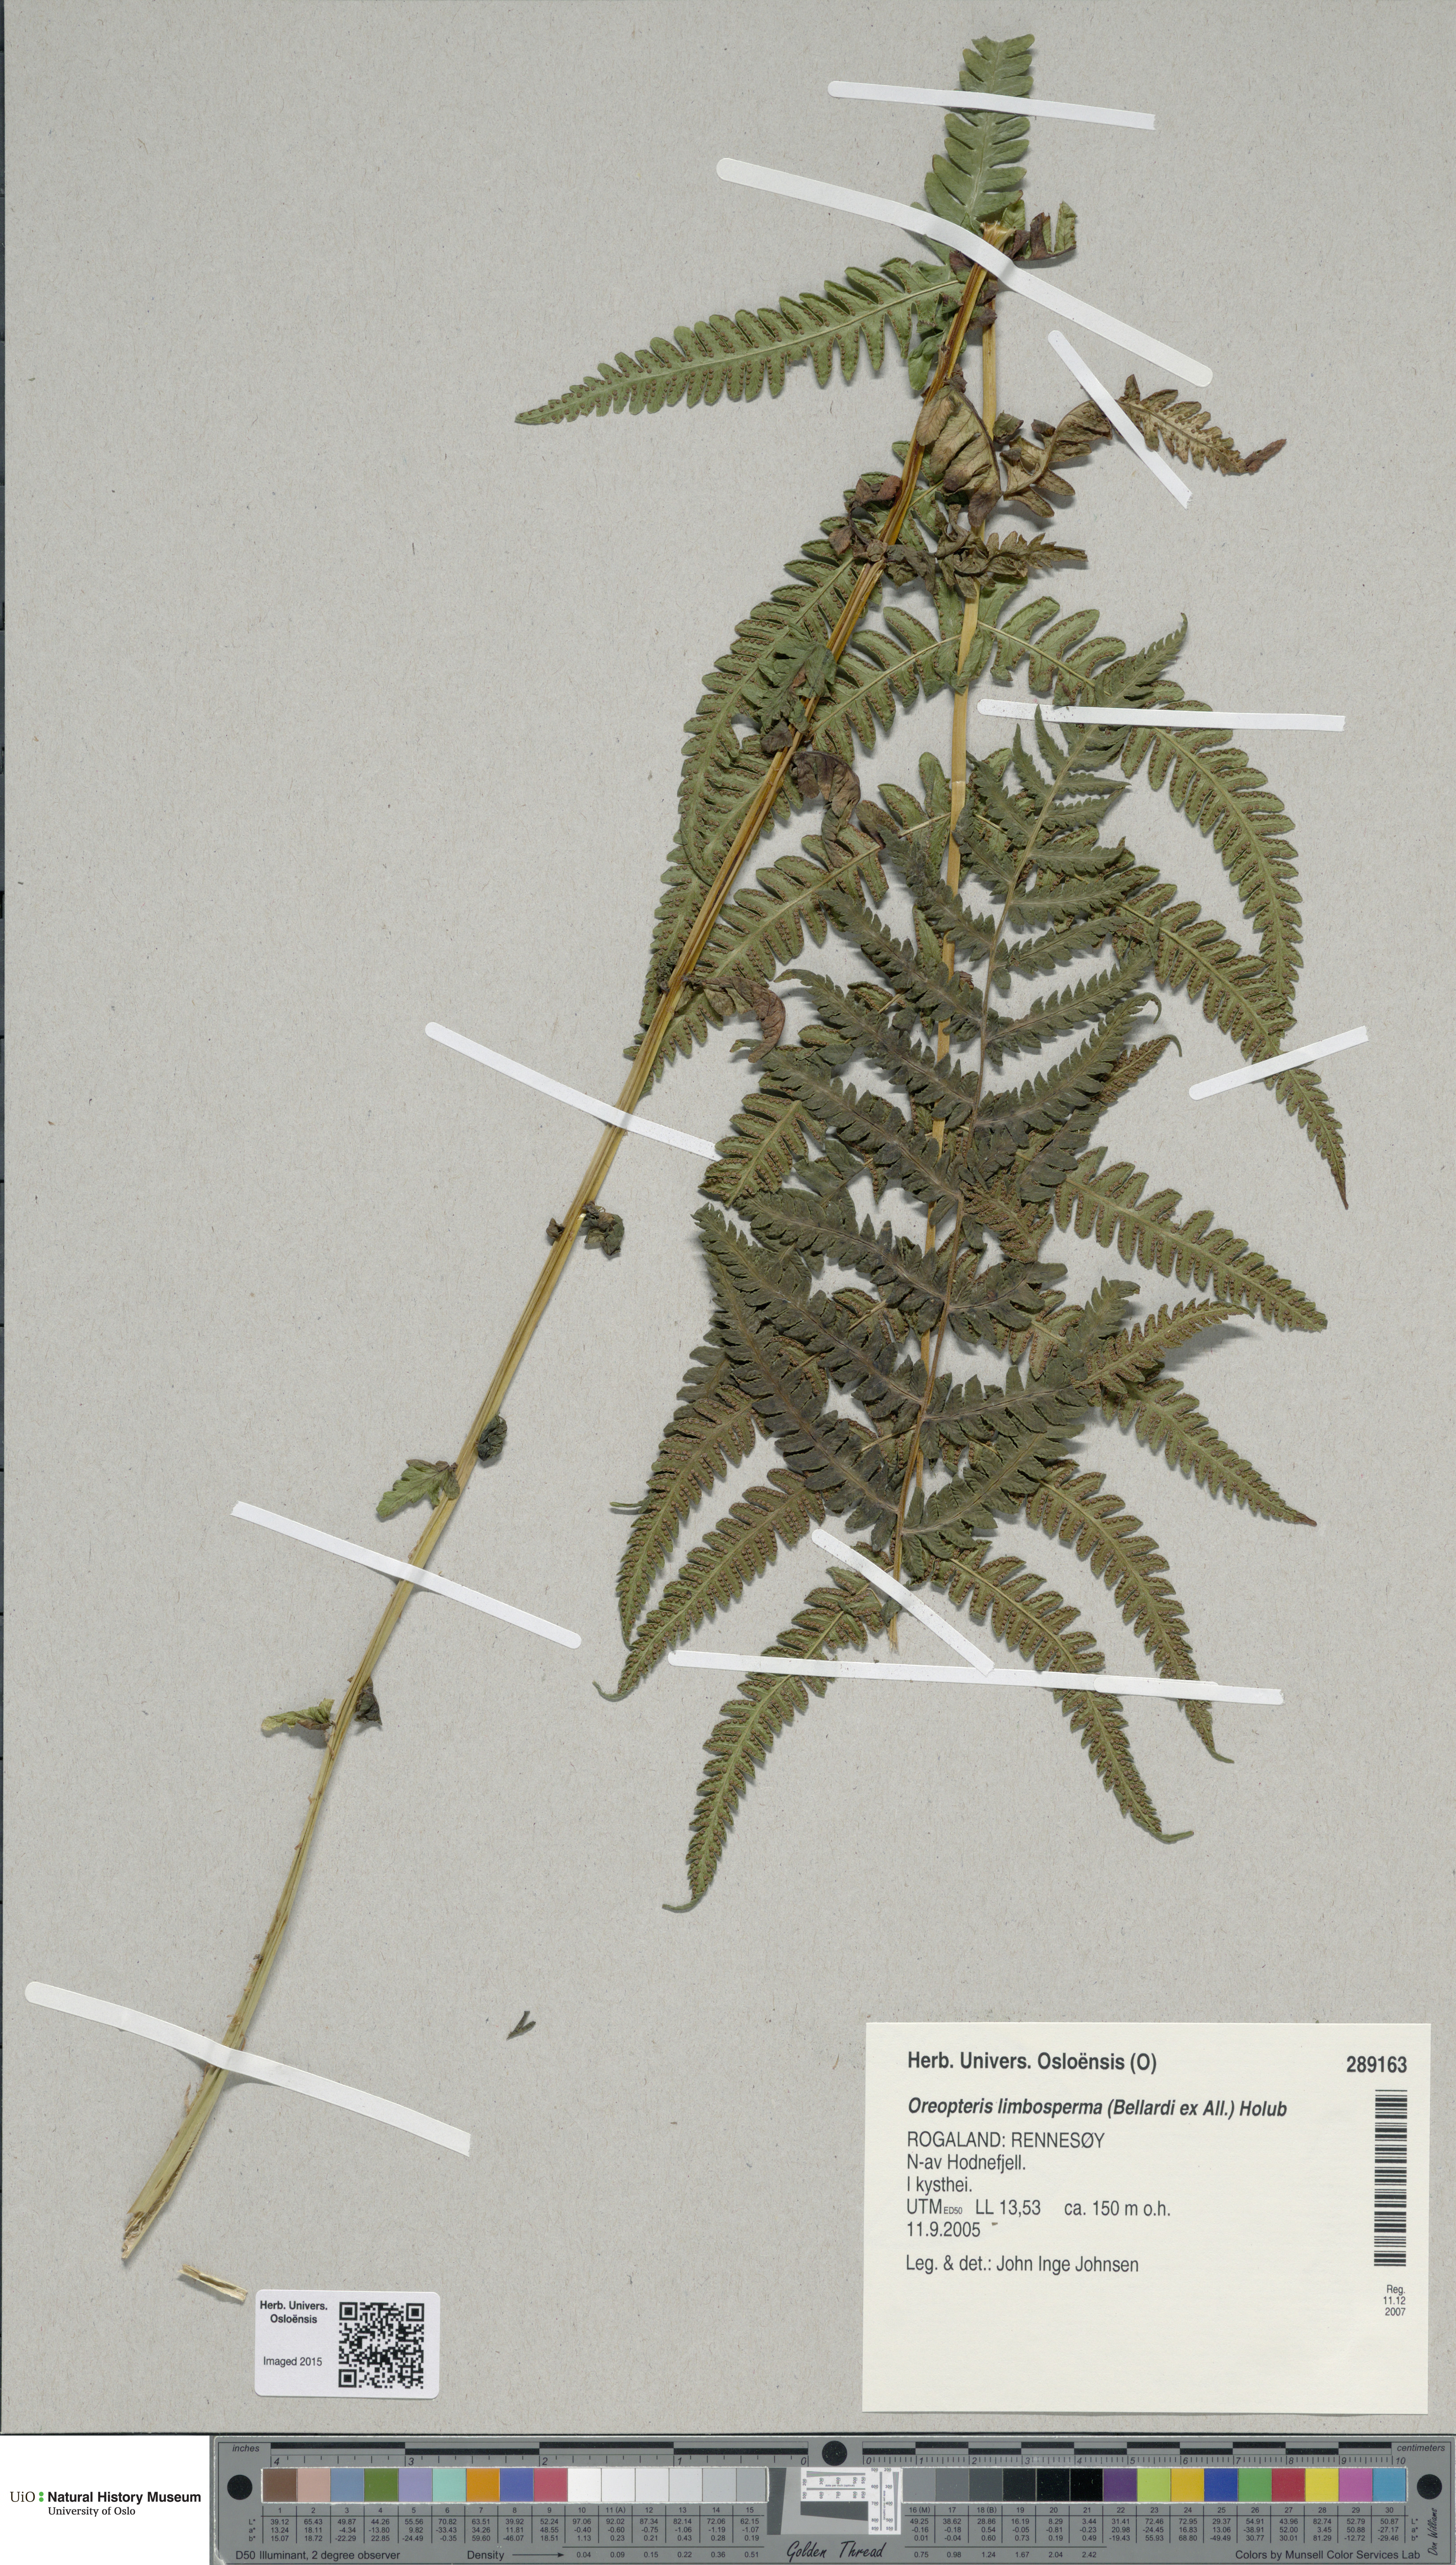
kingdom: Plantae
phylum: Tracheophyta
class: Polypodiopsida
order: Polypodiales
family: Thelypteridaceae
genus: Oreopteris
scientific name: Oreopteris limbosperma
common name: Lemon-scented fern
